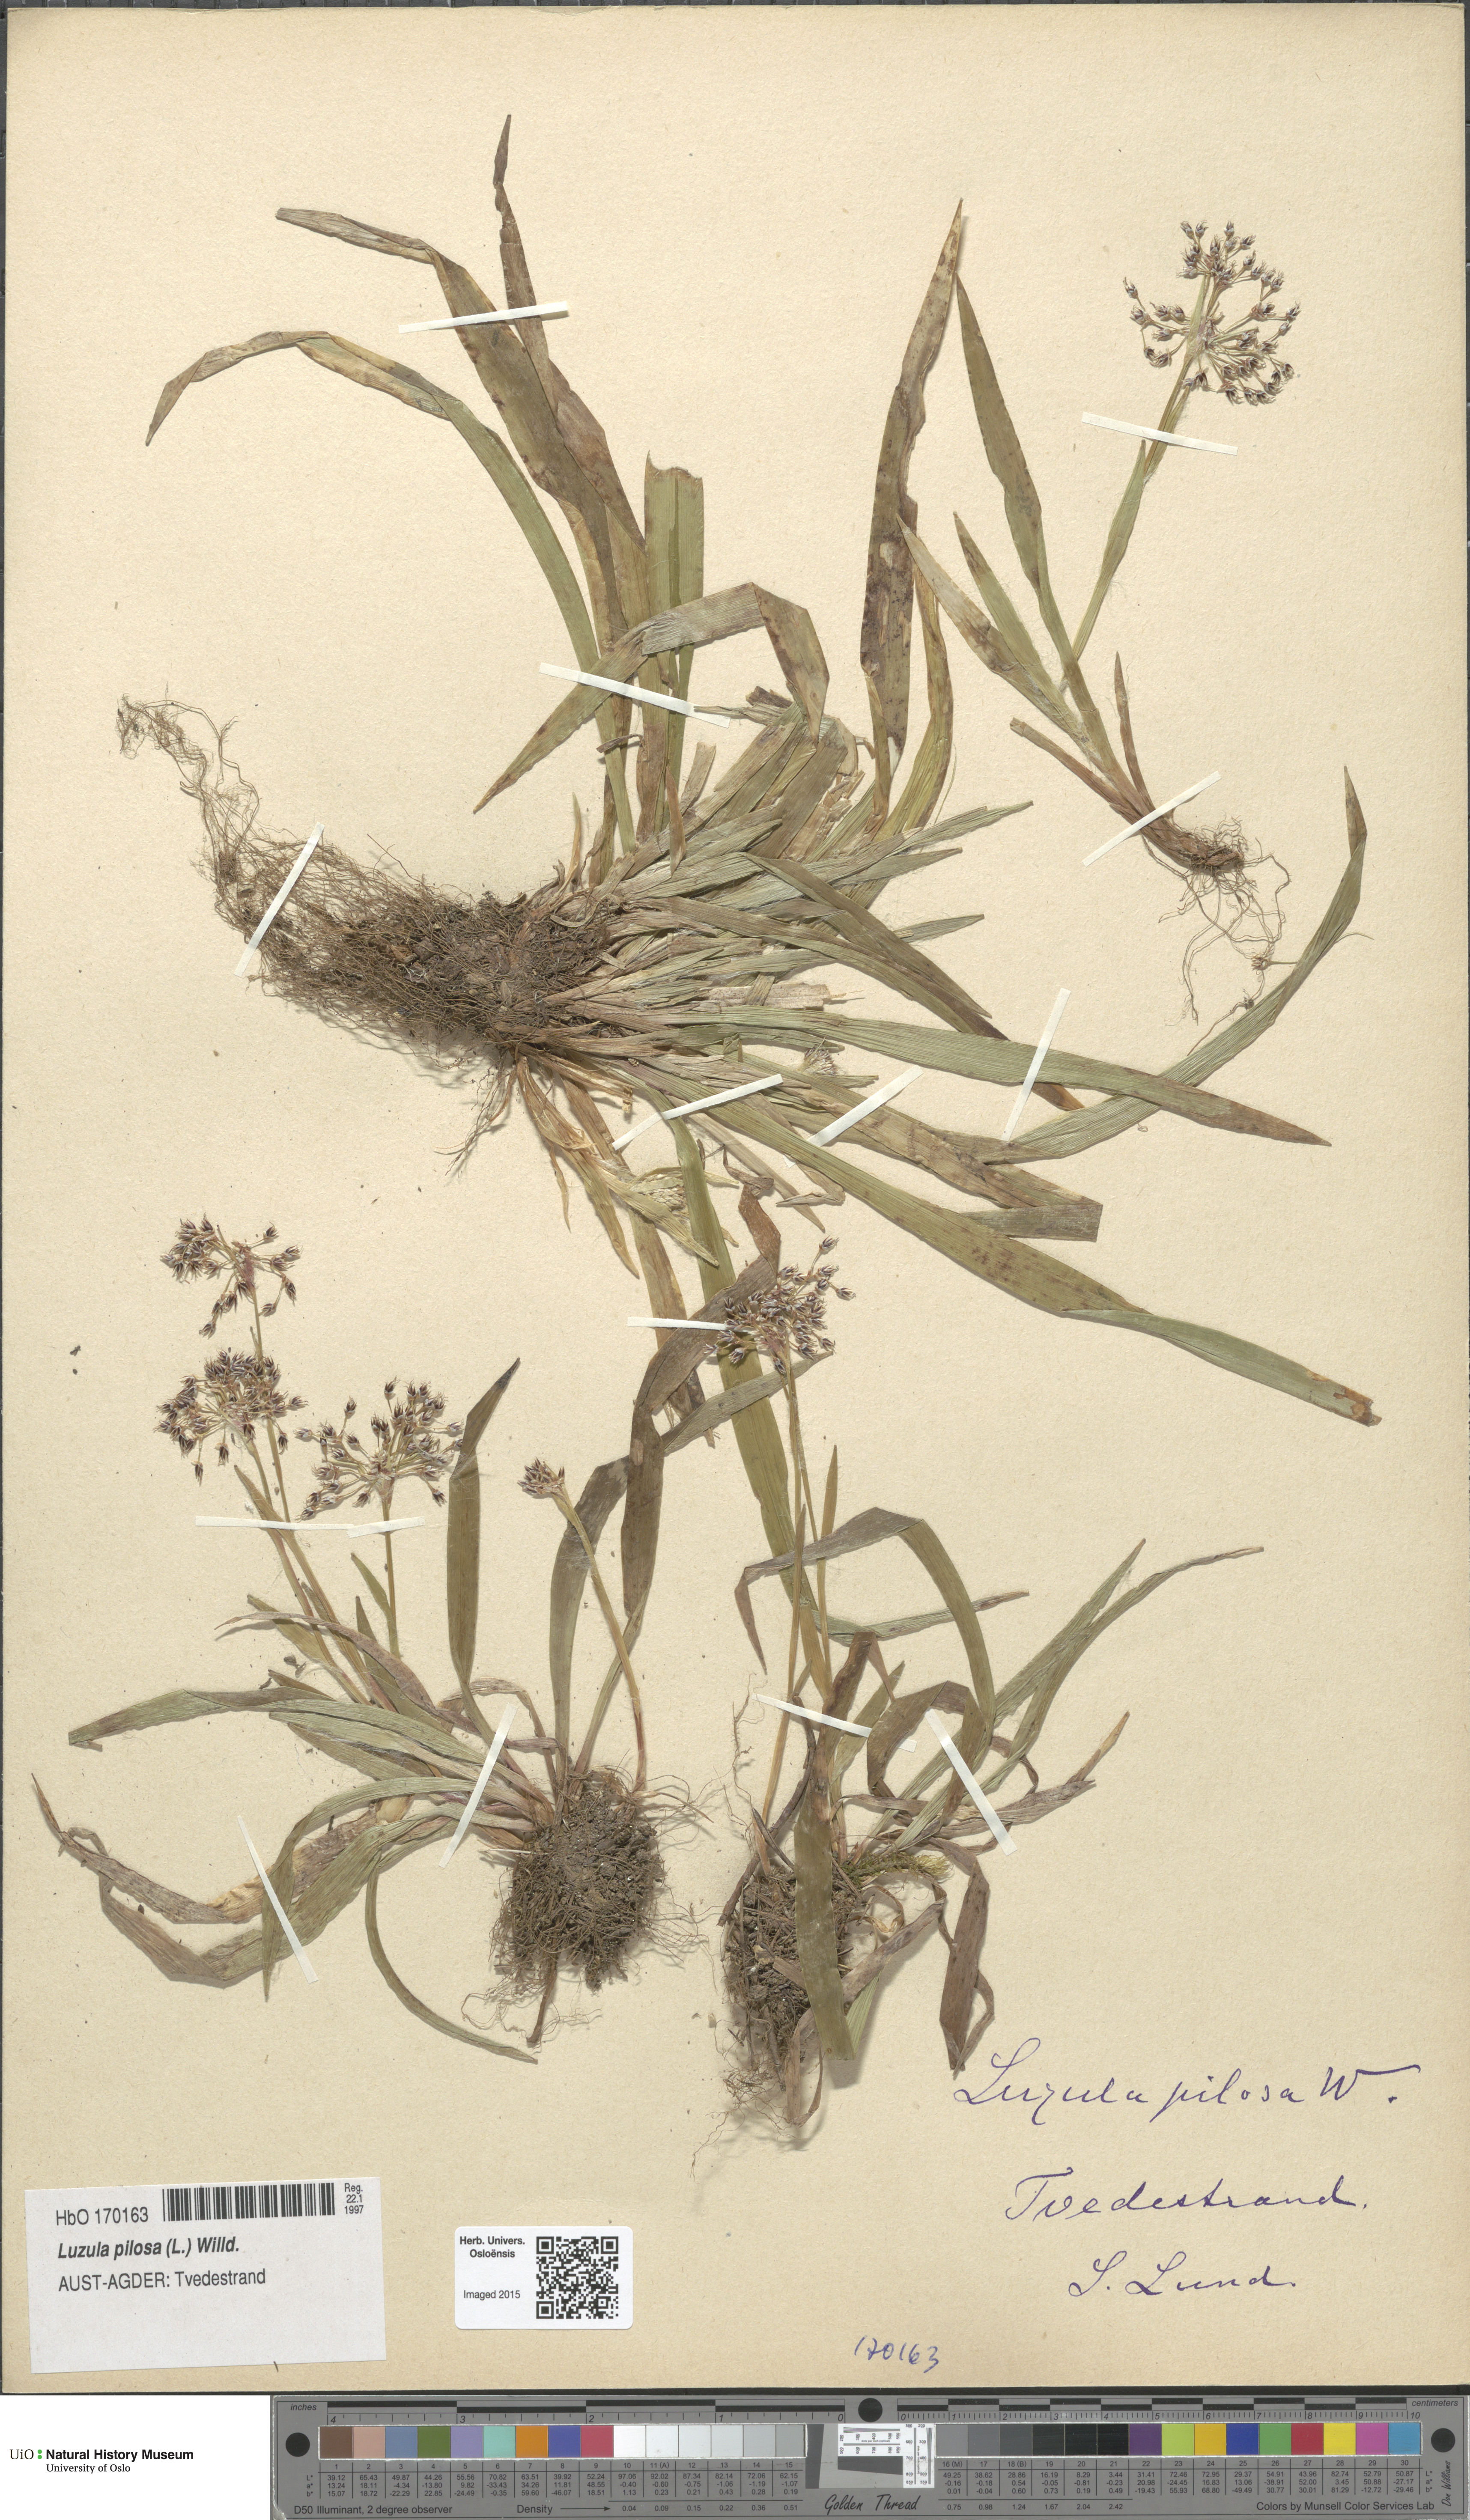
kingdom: Plantae
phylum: Tracheophyta
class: Liliopsida
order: Poales
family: Juncaceae
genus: Luzula
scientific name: Luzula pilosa
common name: Hairy wood-rush
